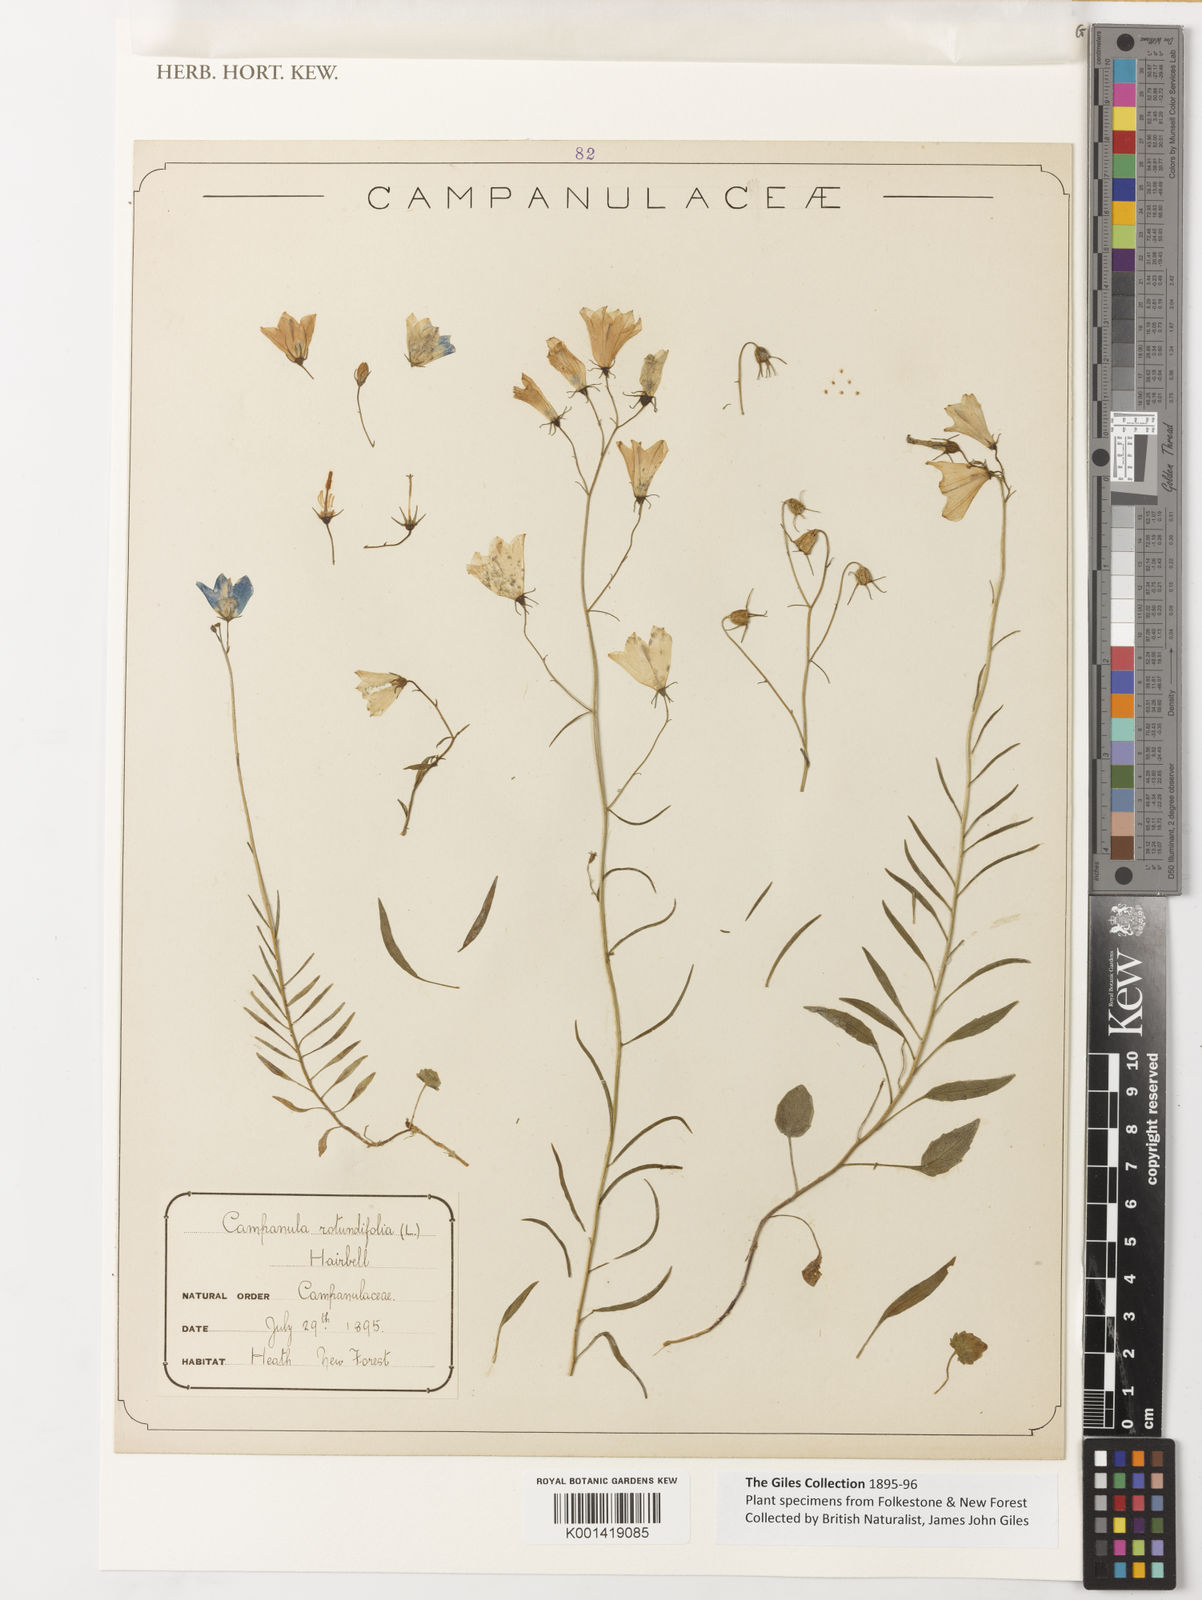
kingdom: Plantae
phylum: Tracheophyta
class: Magnoliopsida
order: Asterales
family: Campanulaceae
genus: Campanula
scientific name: Campanula rotundifolia
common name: Harebell
